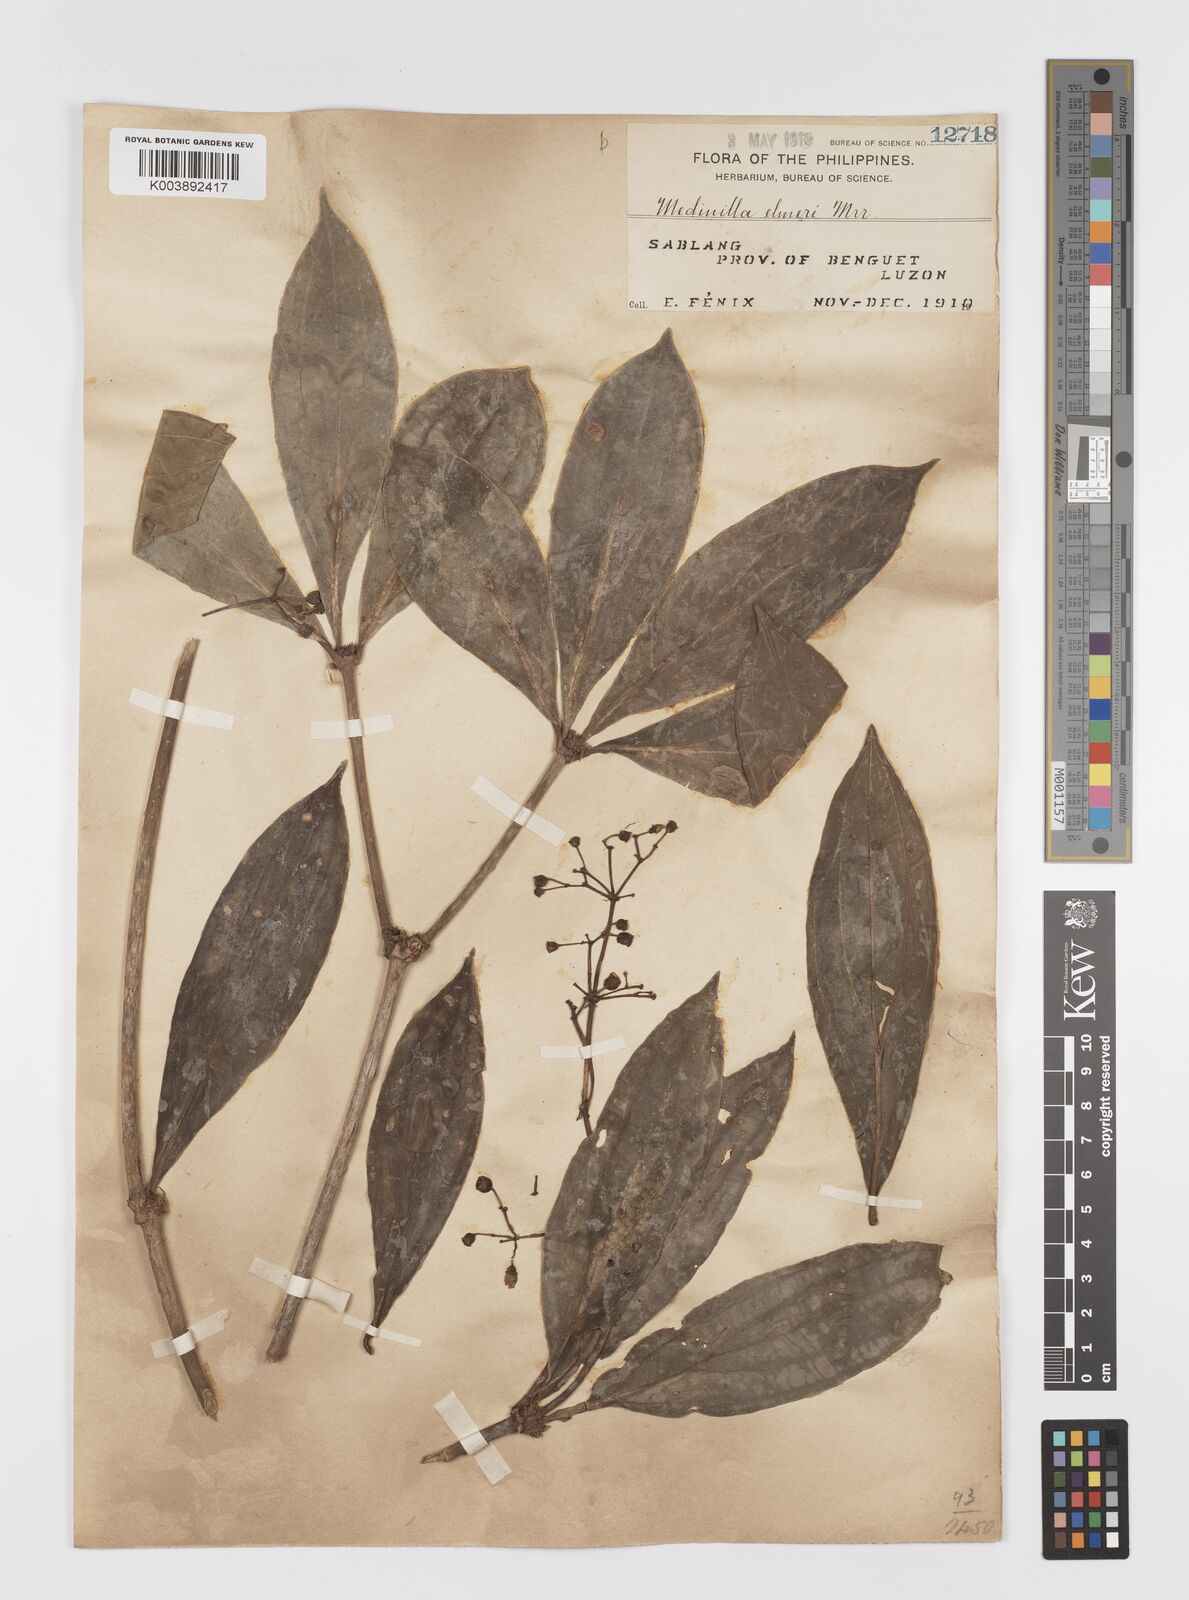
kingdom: Plantae
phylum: Tracheophyta
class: Magnoliopsida
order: Myrtales
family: Melastomataceae
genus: Medinilla
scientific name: Medinilla pendula
